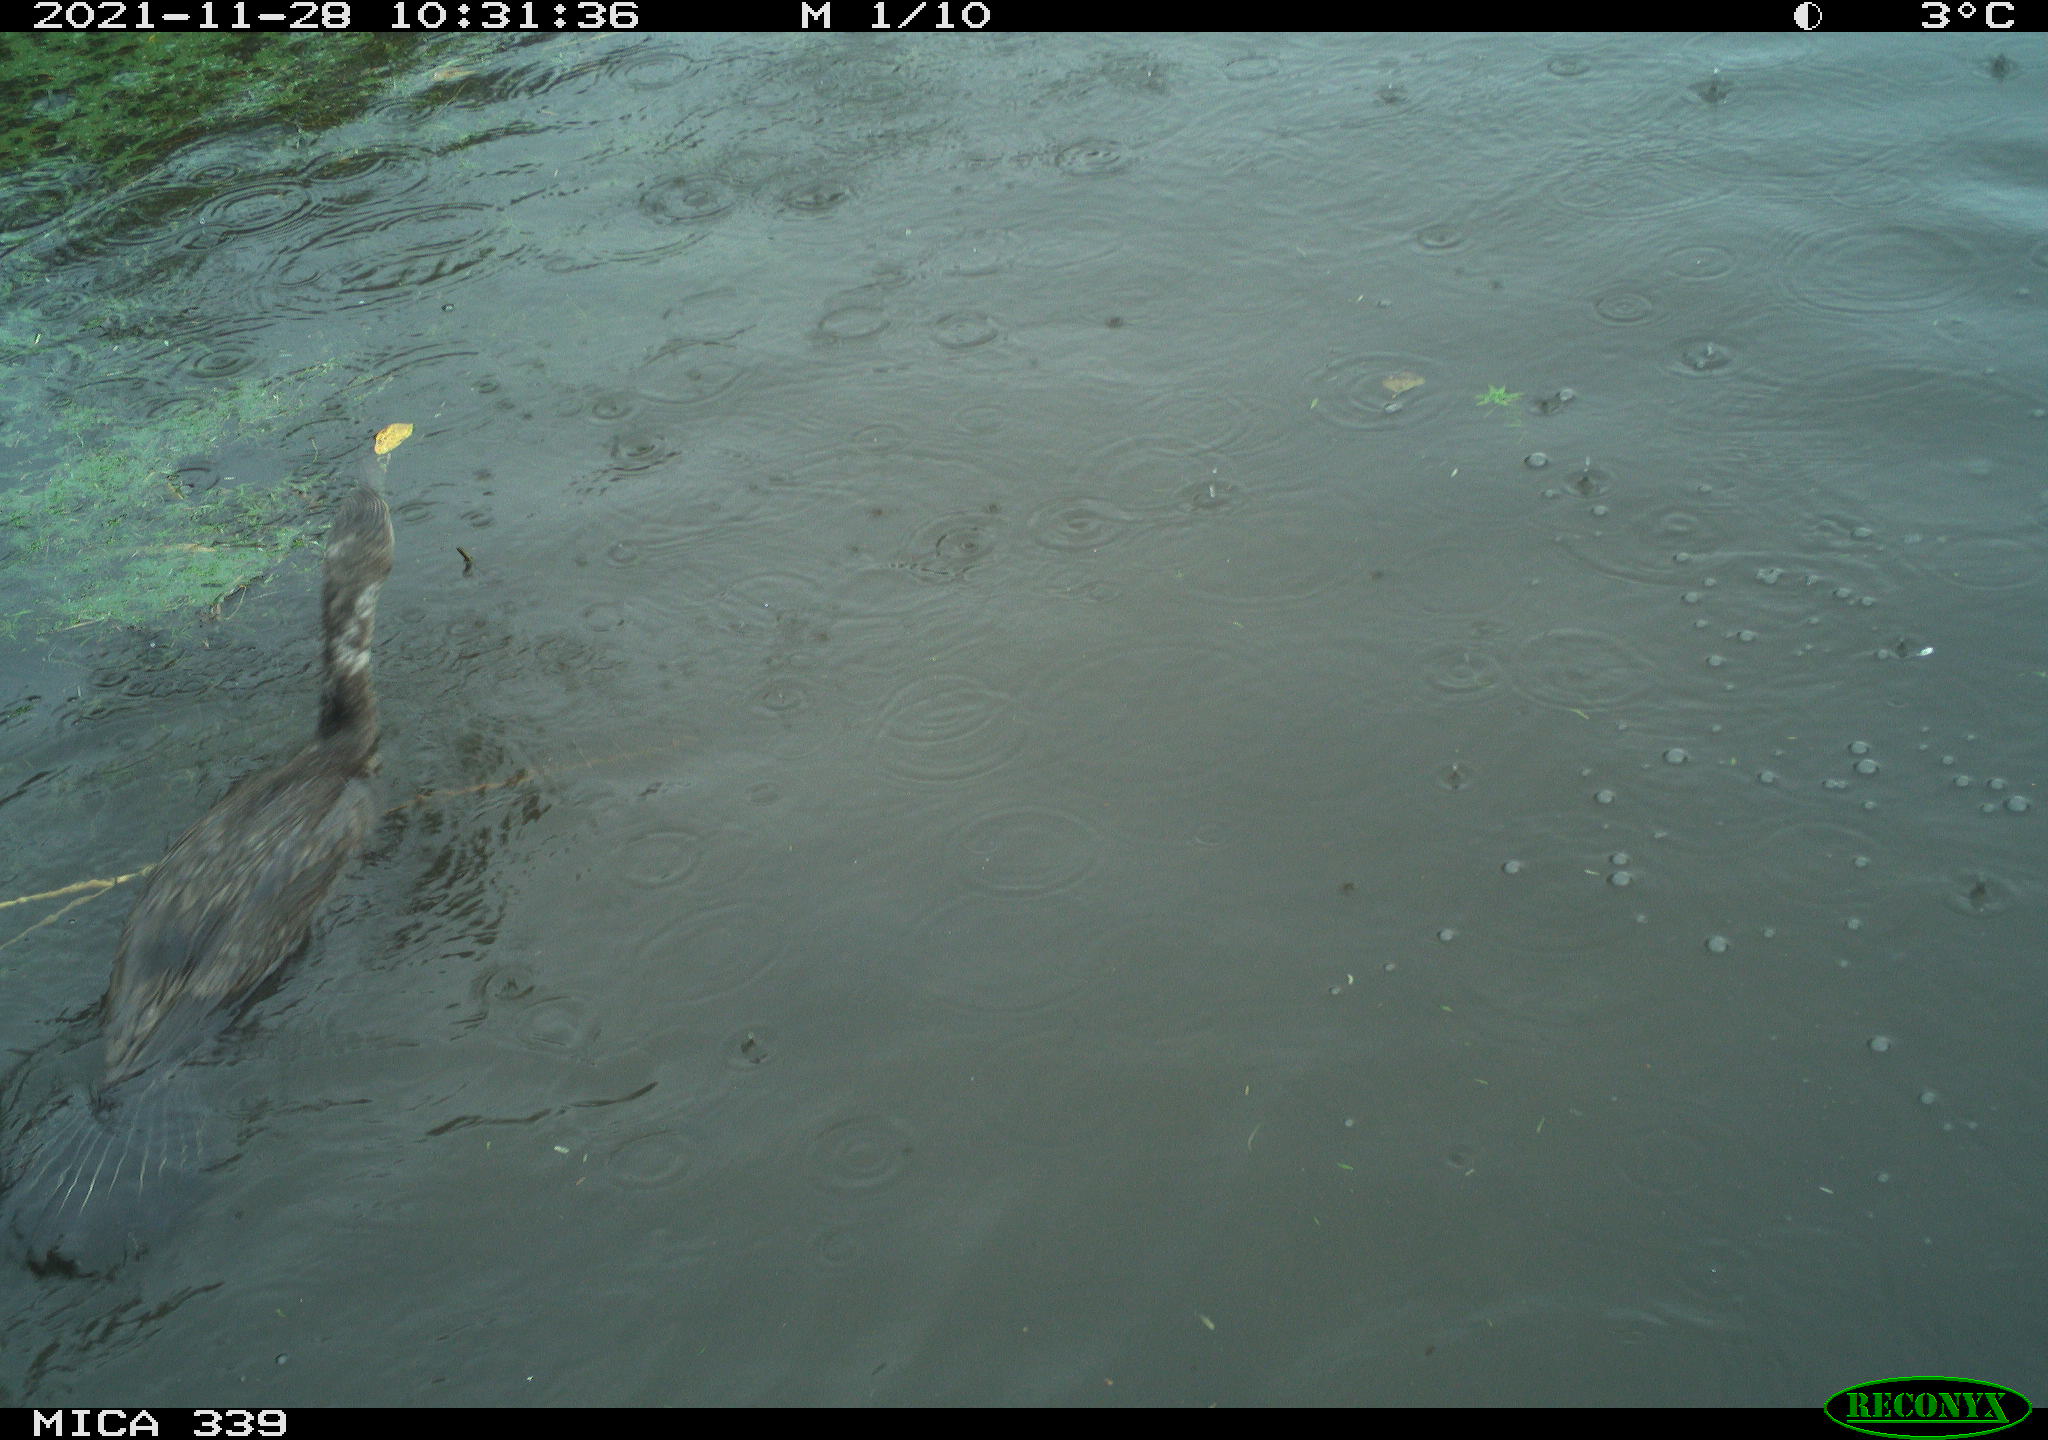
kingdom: Animalia
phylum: Chordata
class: Aves
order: Suliformes
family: Phalacrocoracidae
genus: Phalacrocorax
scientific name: Phalacrocorax carbo
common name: Great cormorant
